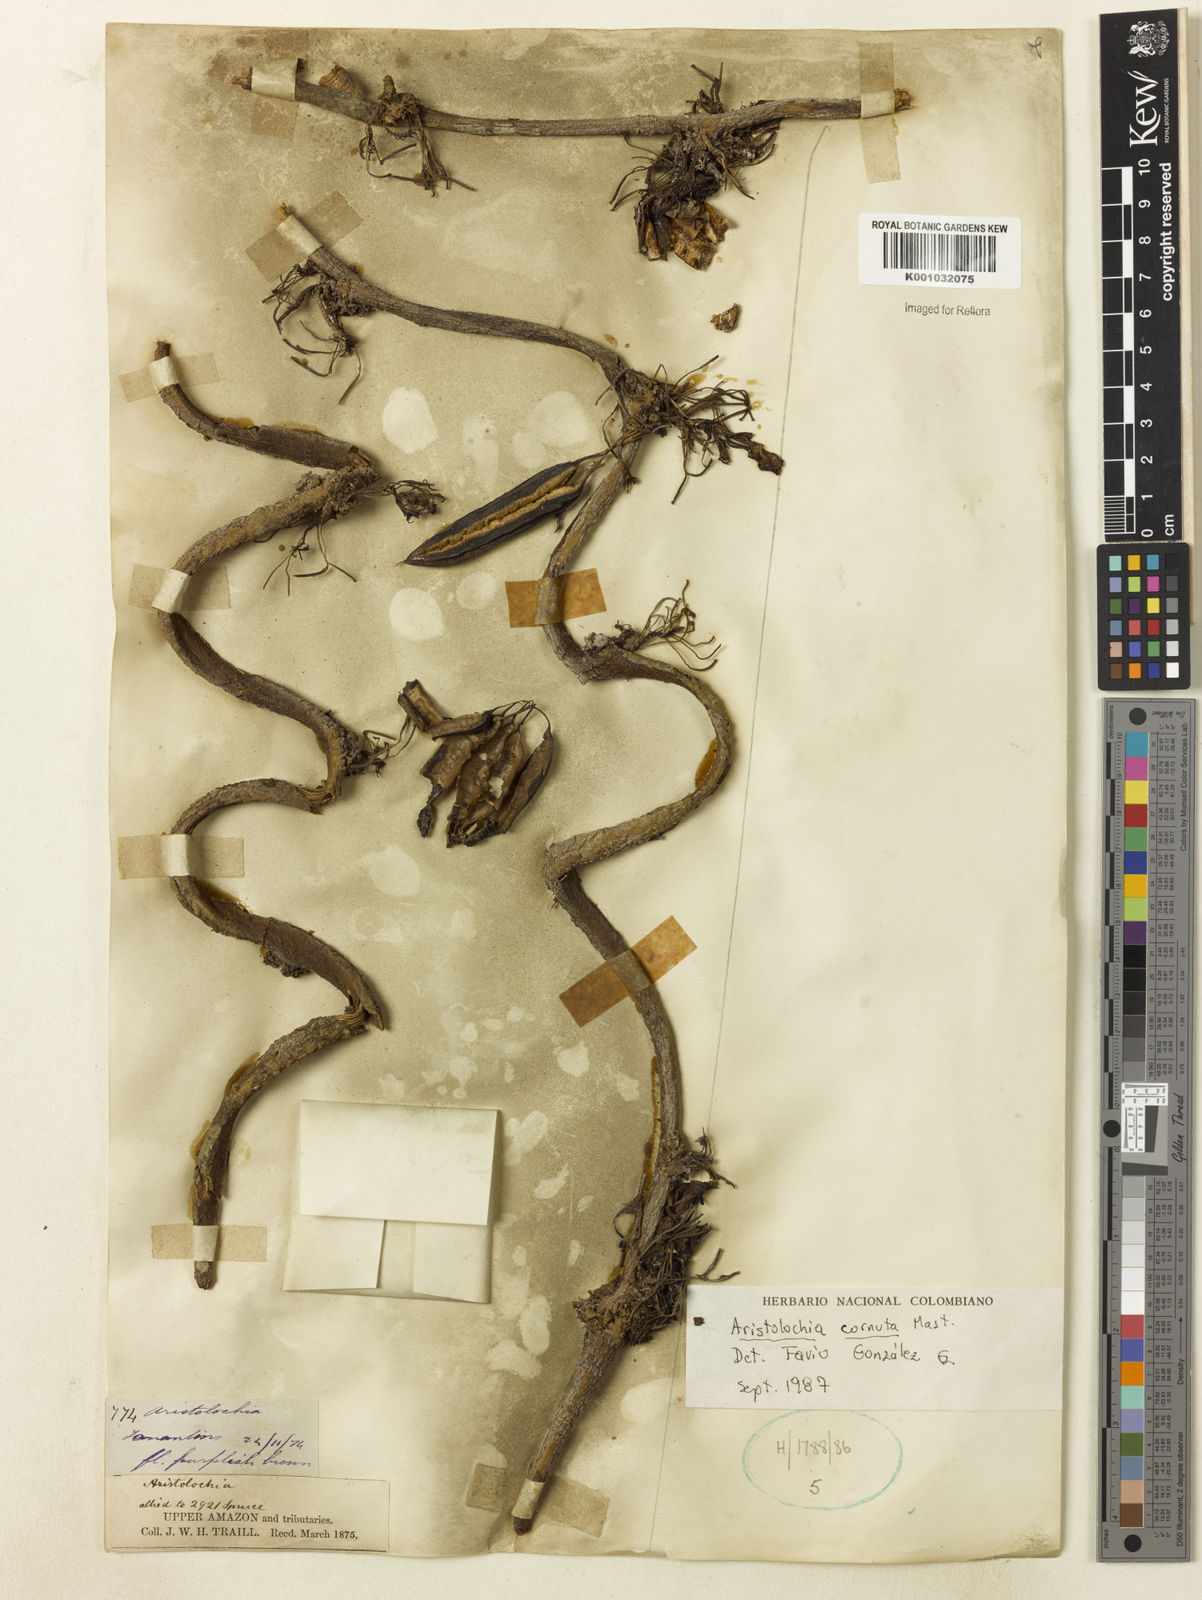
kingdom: Plantae
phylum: Tracheophyta
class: Magnoliopsida
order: Piperales
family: Aristolochiaceae
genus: Aristolochia
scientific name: Aristolochia cornuta
